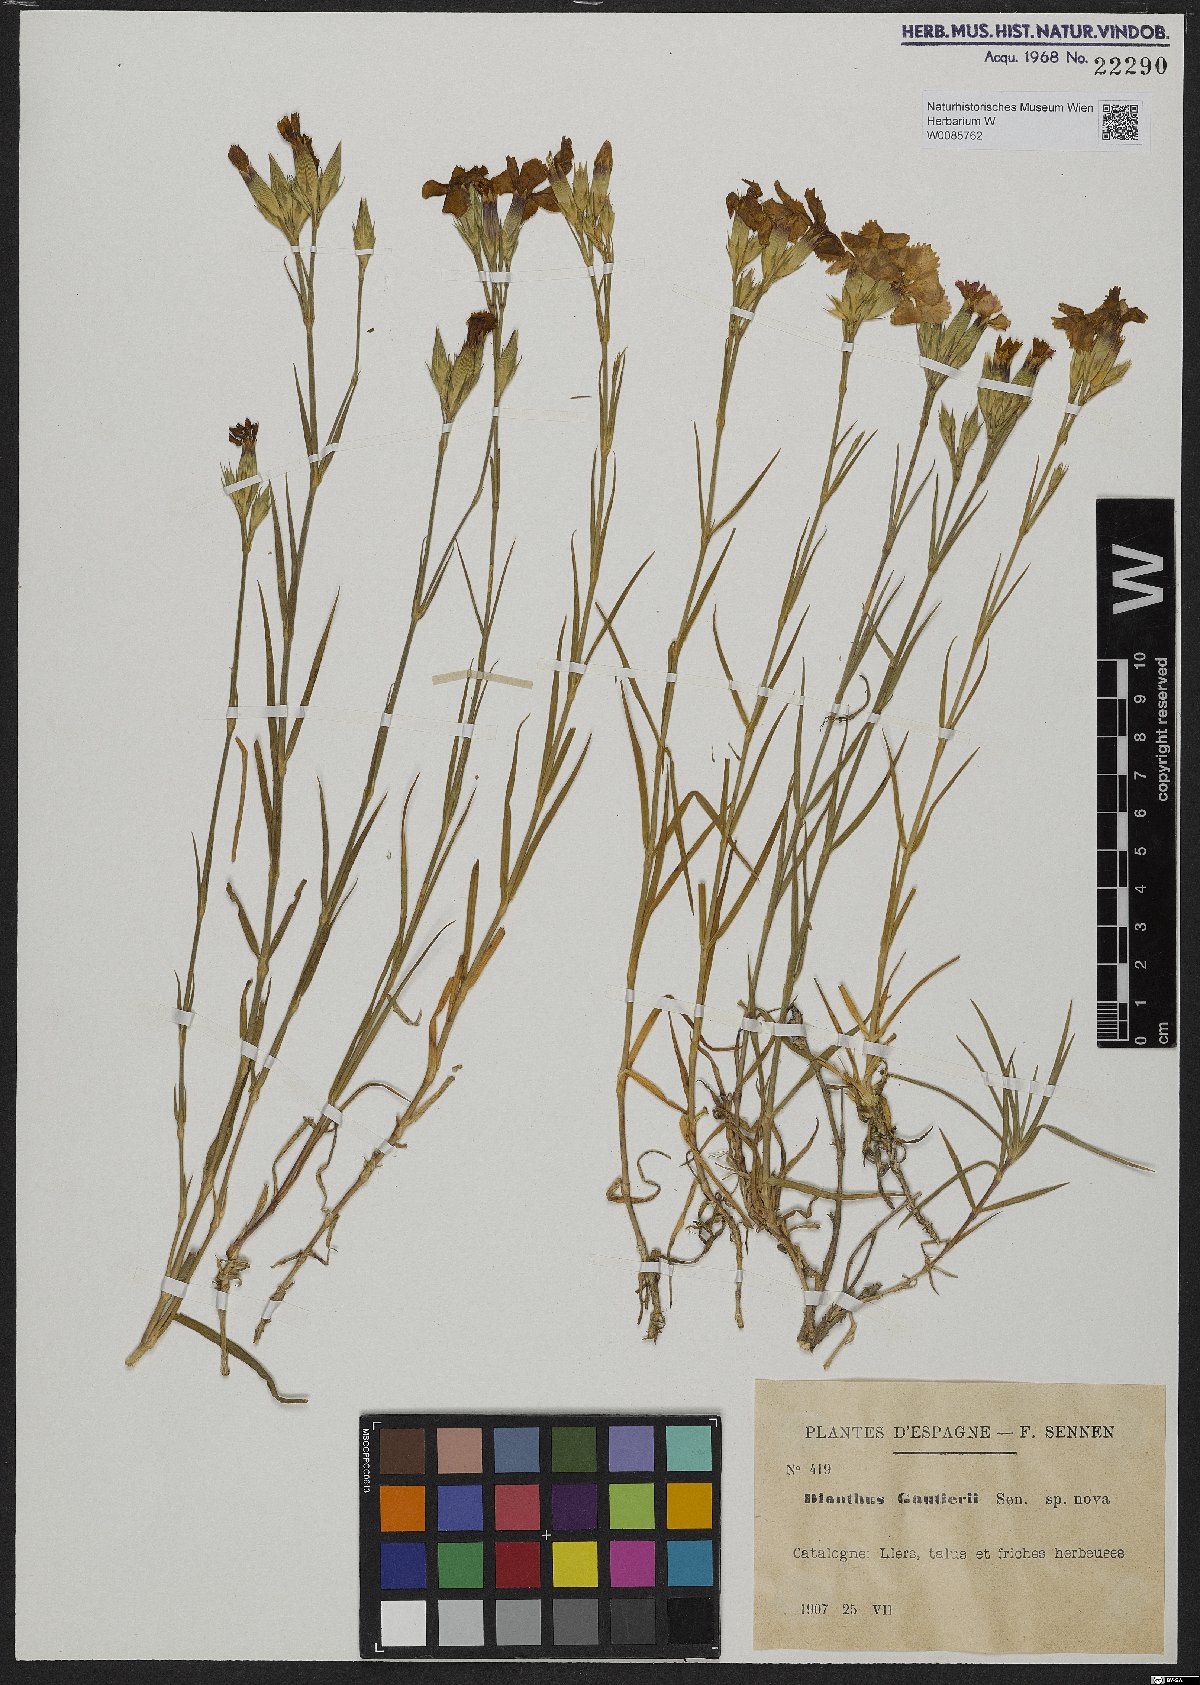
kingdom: Plantae
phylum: Tracheophyta
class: Magnoliopsida
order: Caryophyllales
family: Caryophyllaceae
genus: Dianthus
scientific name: Dianthus seguieri
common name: Ragged pink
